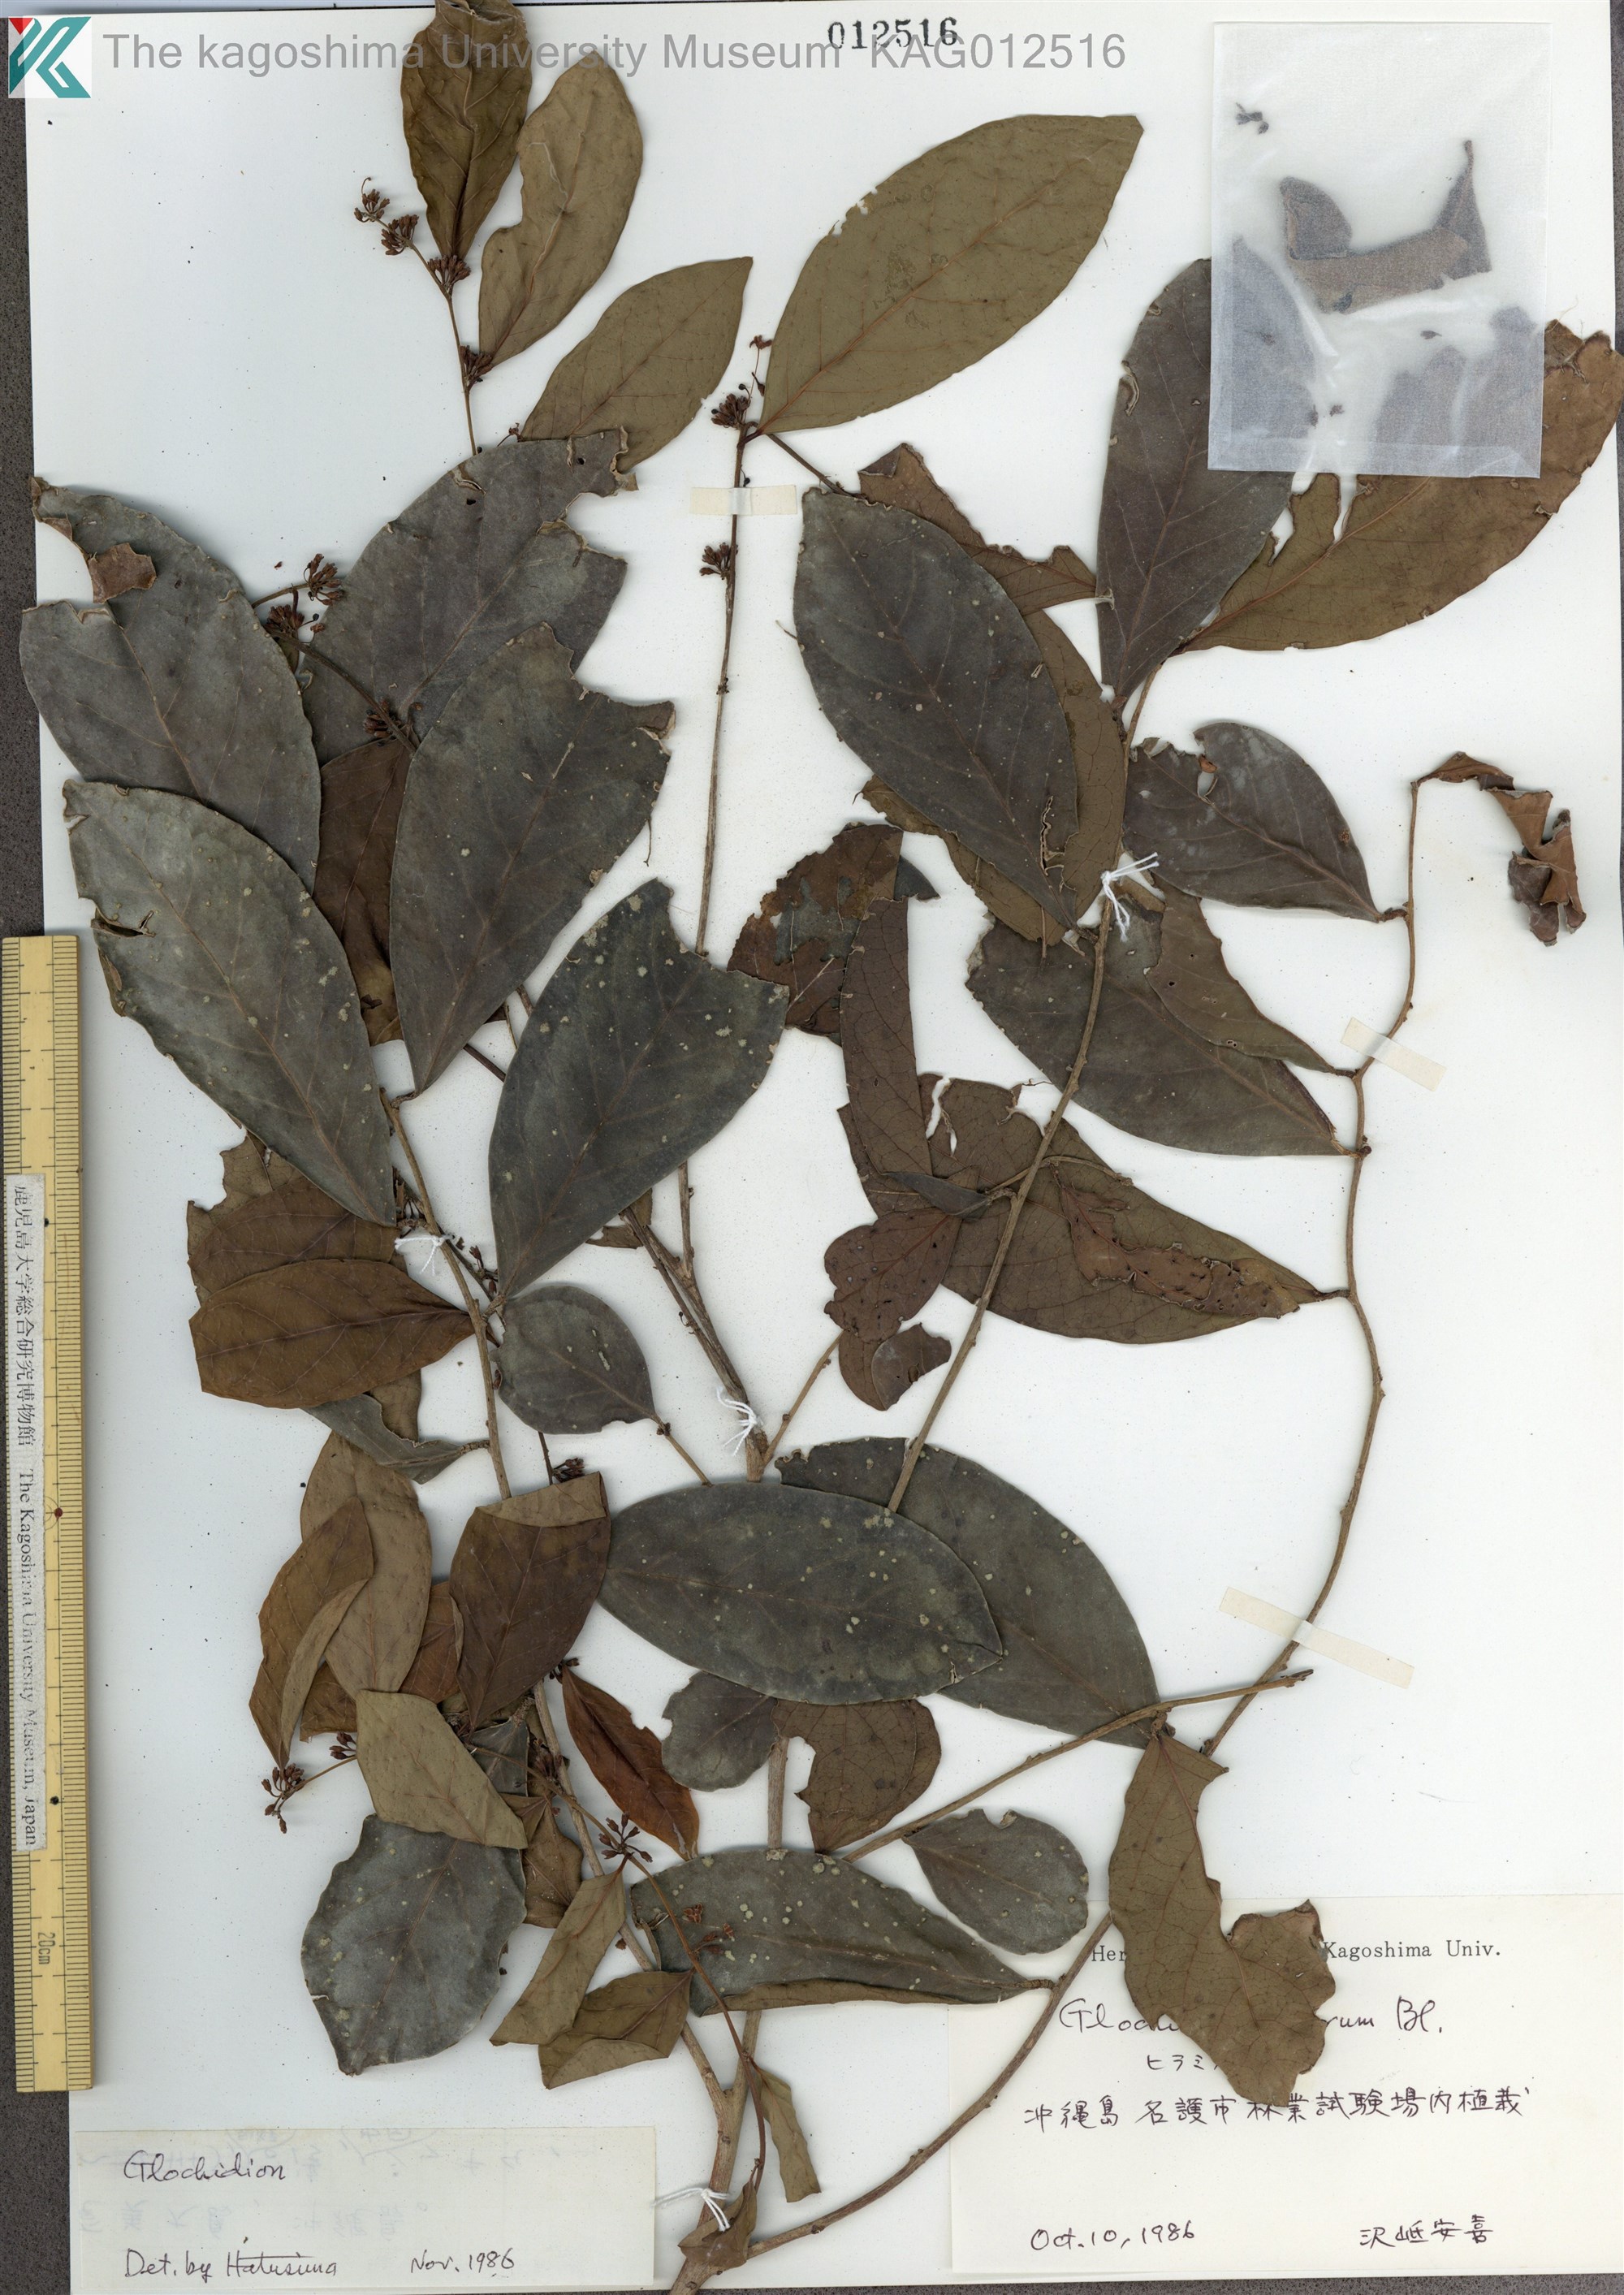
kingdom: Plantae
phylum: Tracheophyta
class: Magnoliopsida
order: Malpighiales
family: Phyllanthaceae
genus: Glochidion
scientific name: Glochidion zeylanicum
